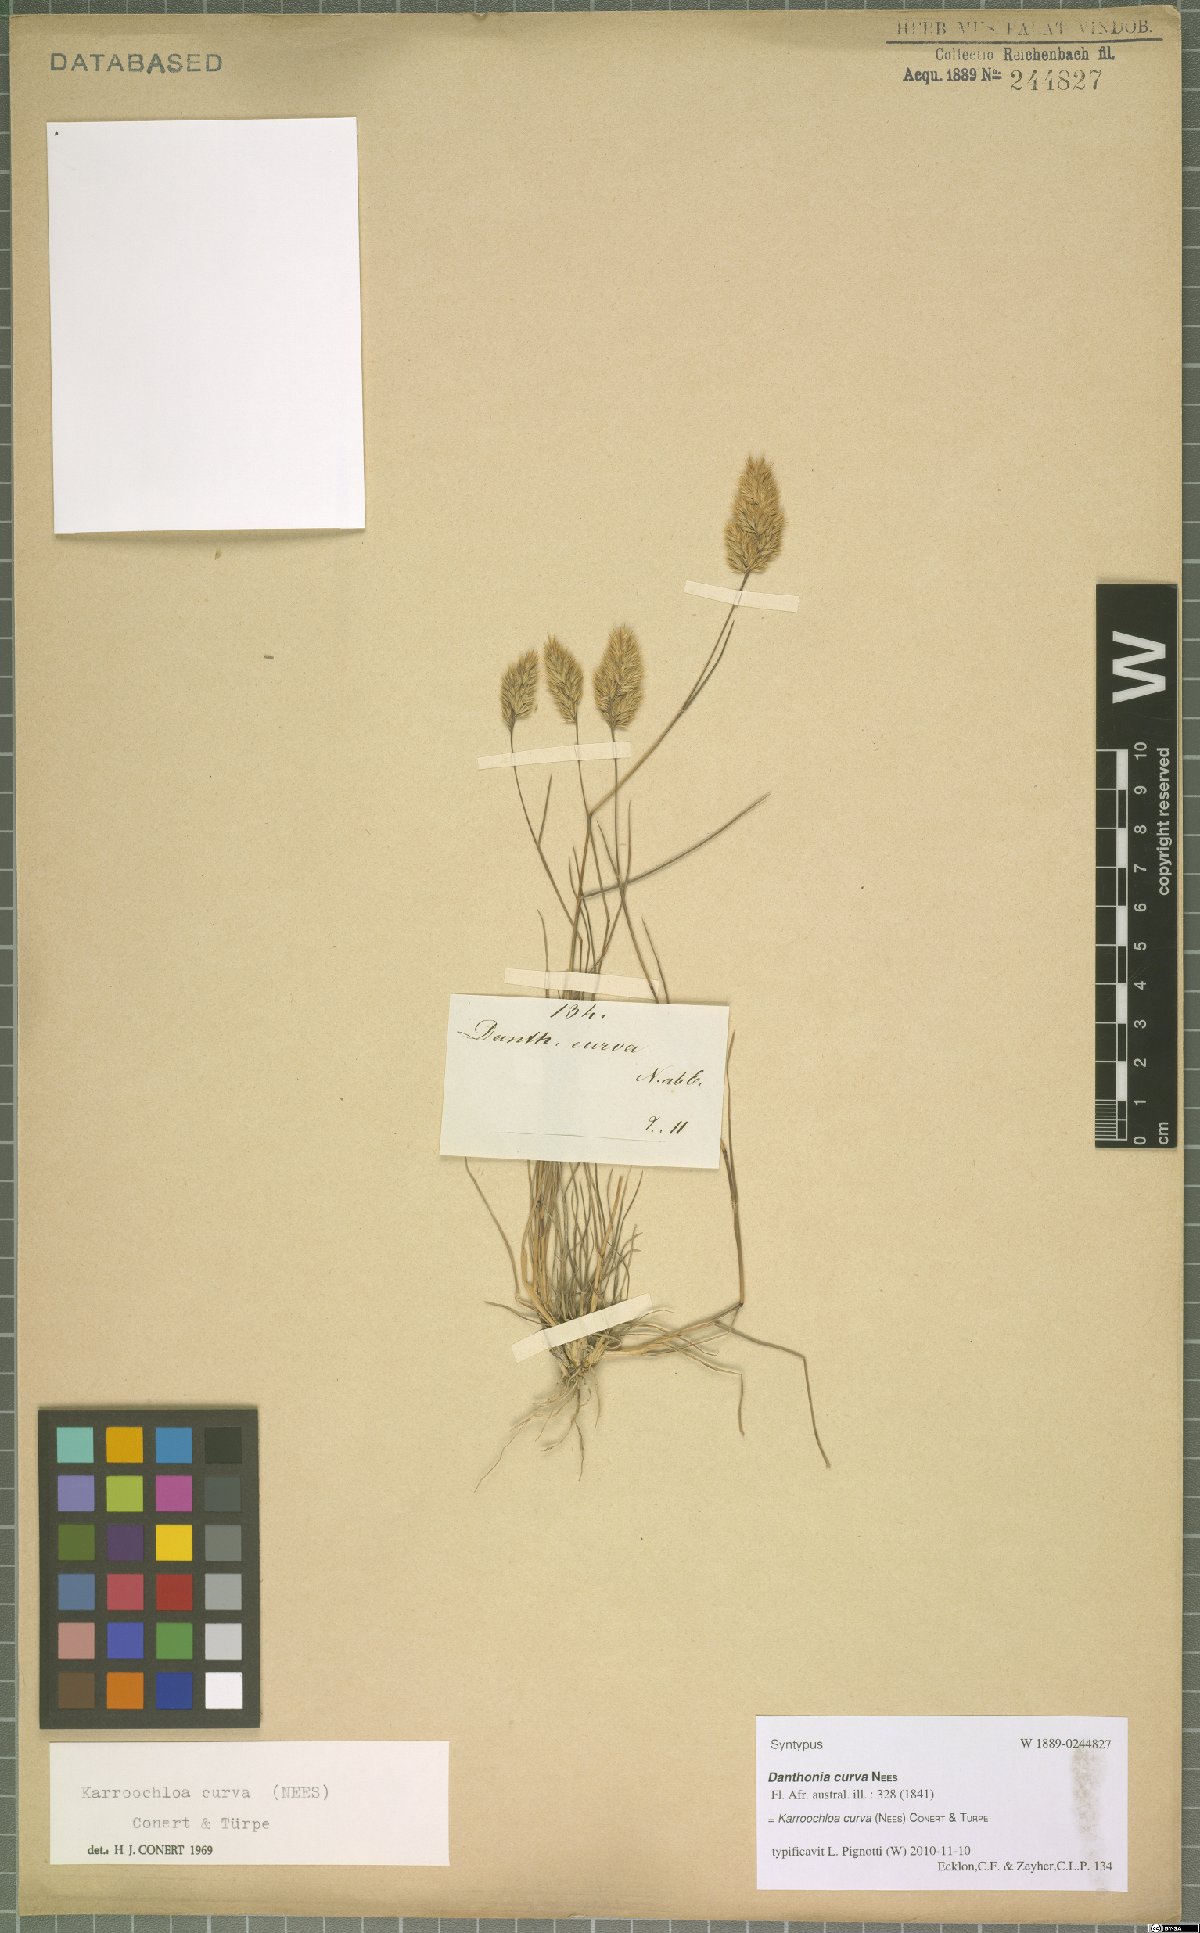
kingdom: Plantae
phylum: Tracheophyta
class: Liliopsida
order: Poales
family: Poaceae
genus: Tribolium
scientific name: Tribolium curvum
